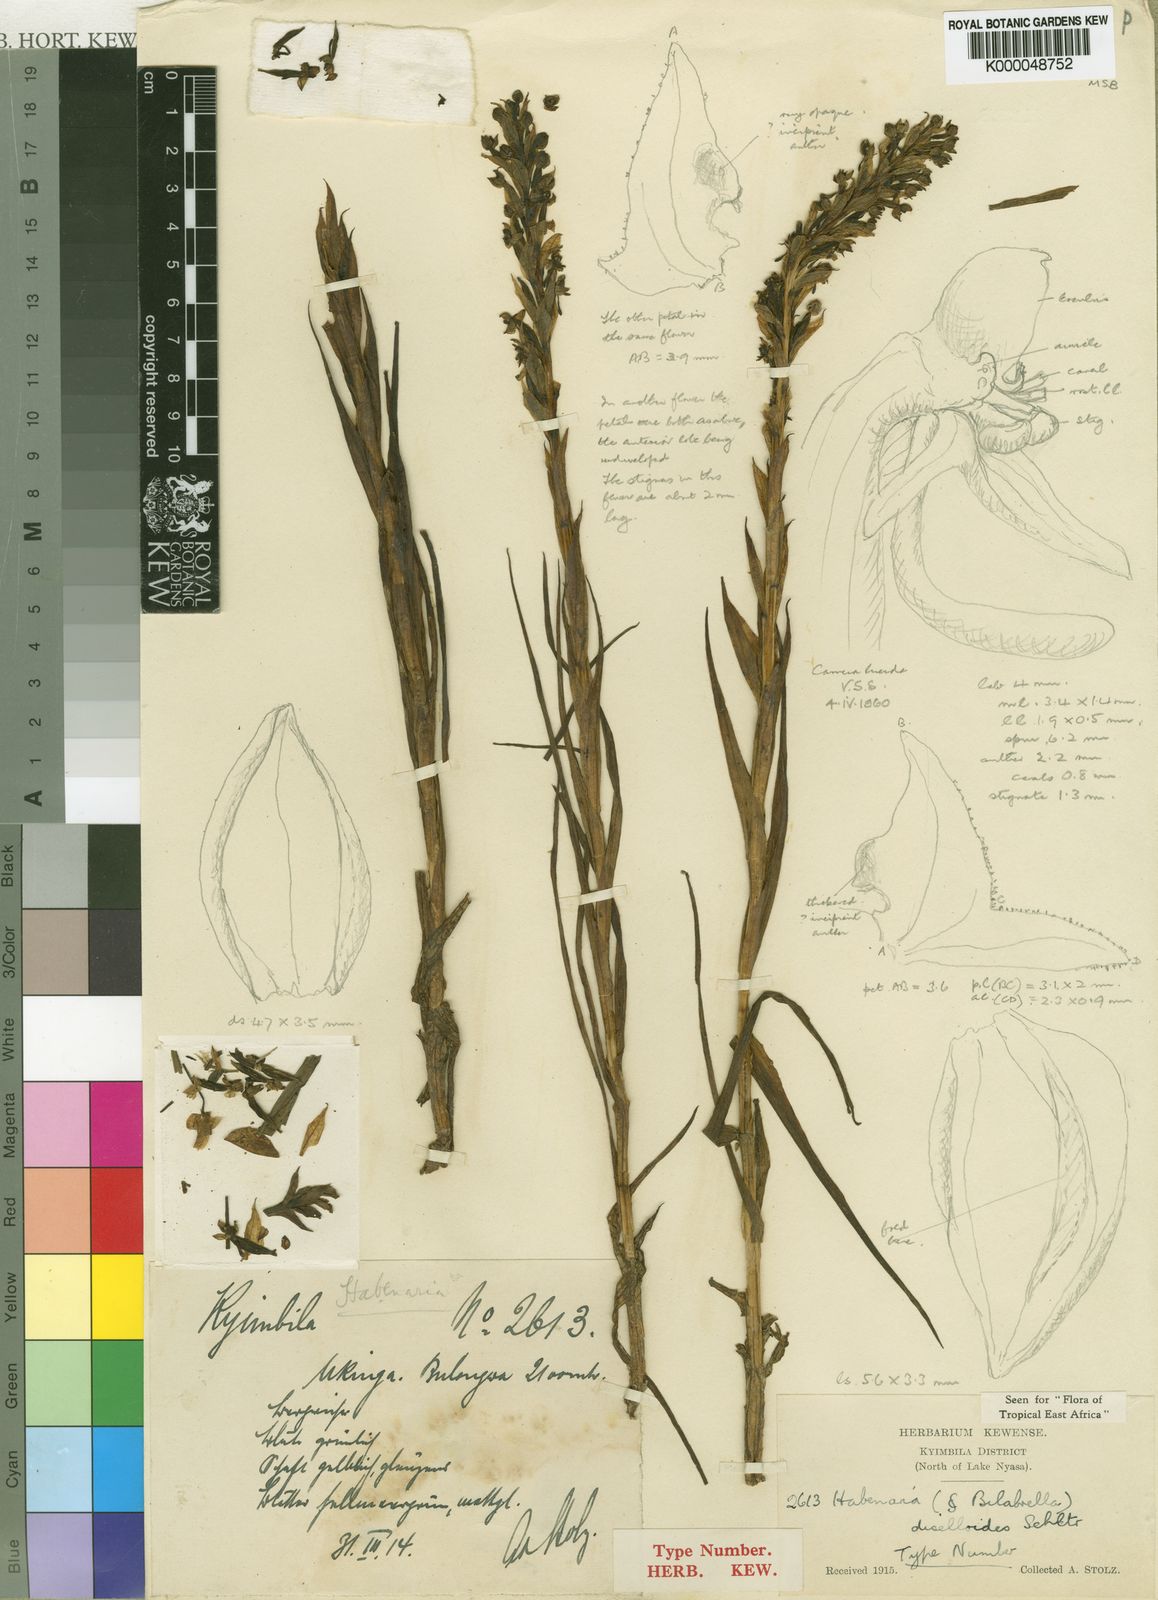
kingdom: Plantae
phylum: Tracheophyta
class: Liliopsida
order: Asparagales
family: Orchidaceae
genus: Habenaria
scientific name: Habenaria diselloides
